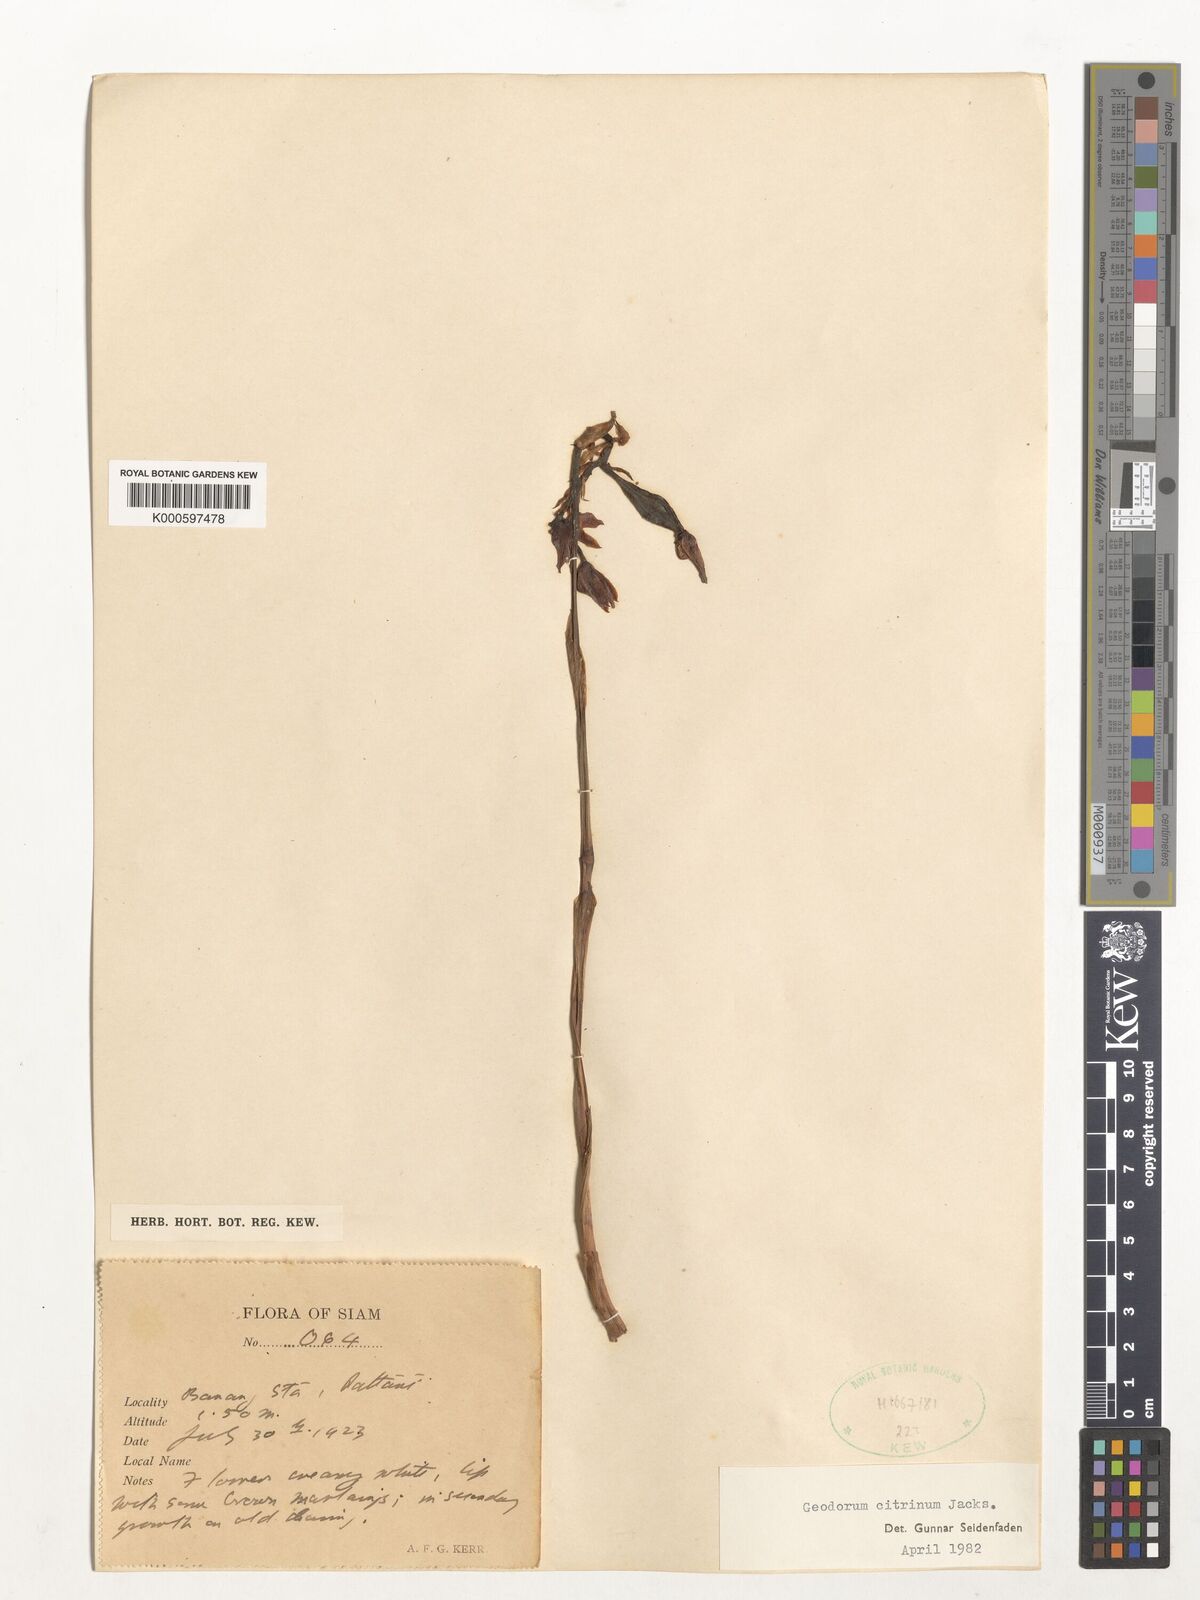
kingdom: Plantae
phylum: Tracheophyta
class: Liliopsida
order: Asparagales
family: Orchidaceae
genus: Geodorum
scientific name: Geodorum
